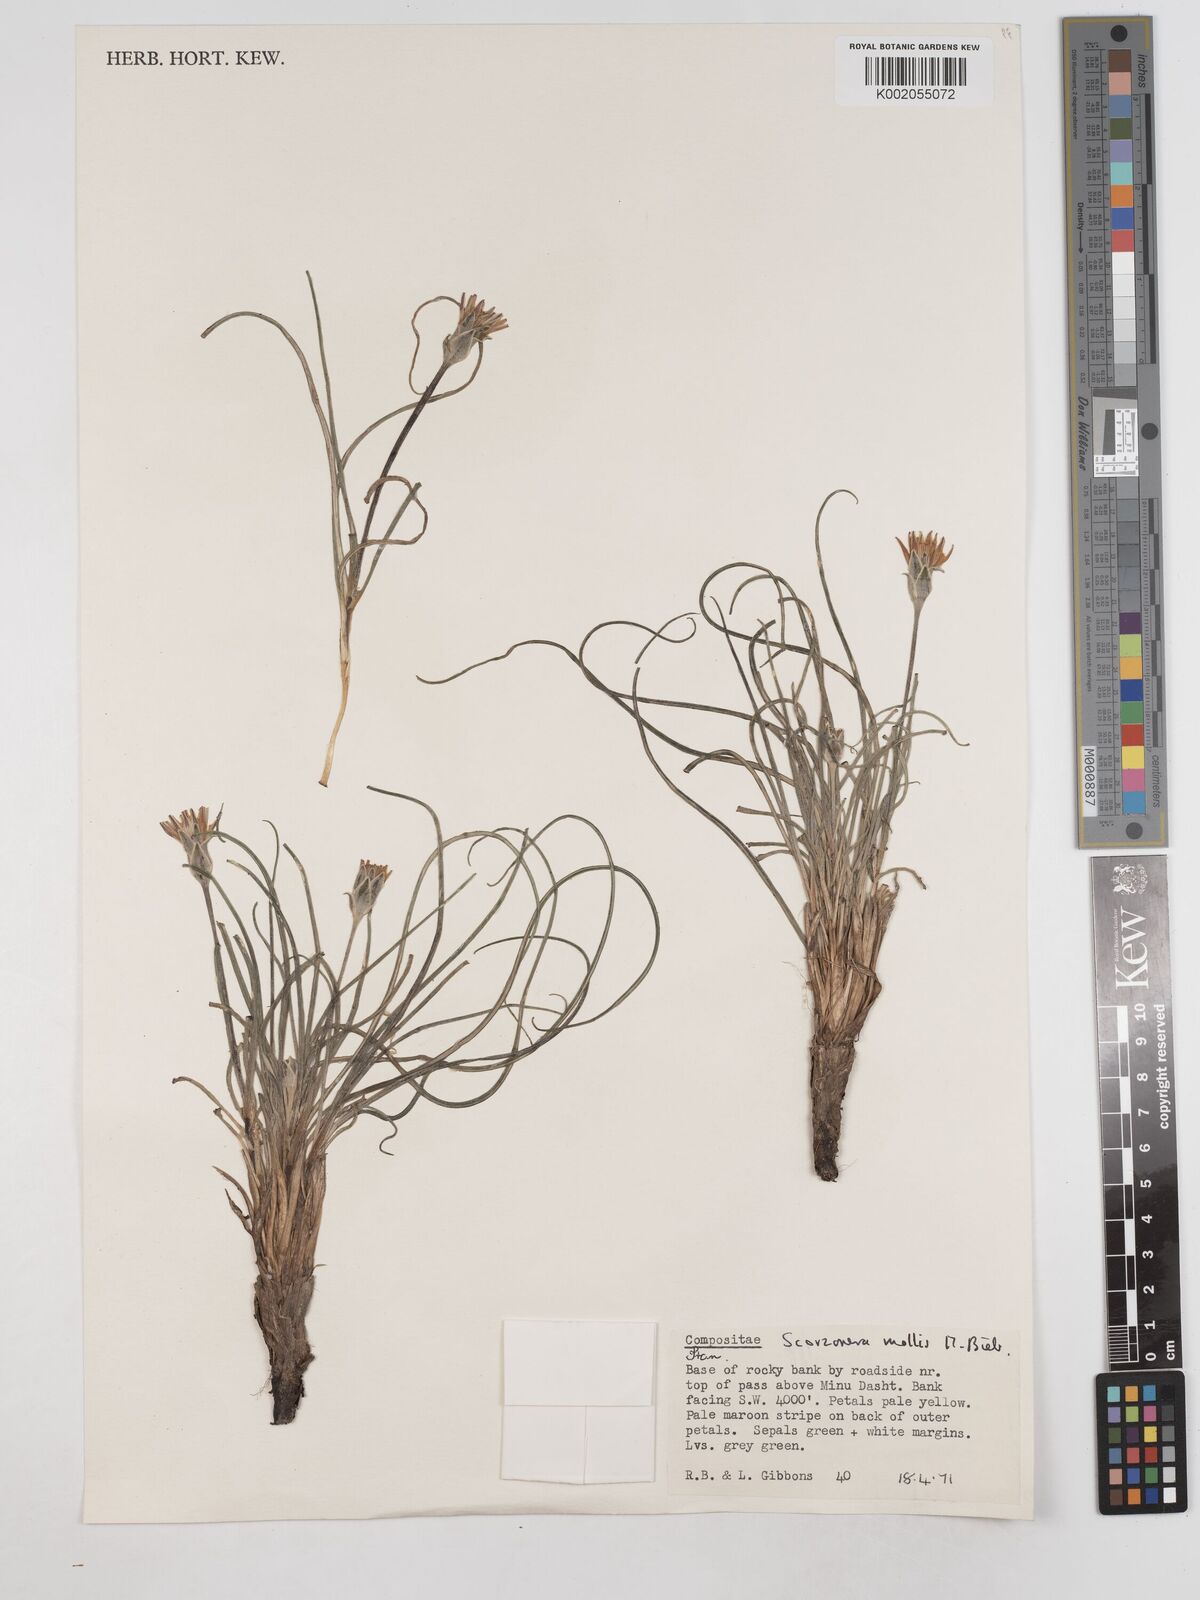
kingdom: Plantae
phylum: Tracheophyta
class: Magnoliopsida
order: Asterales
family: Asteraceae
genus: Candollea
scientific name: Candollea mollis
